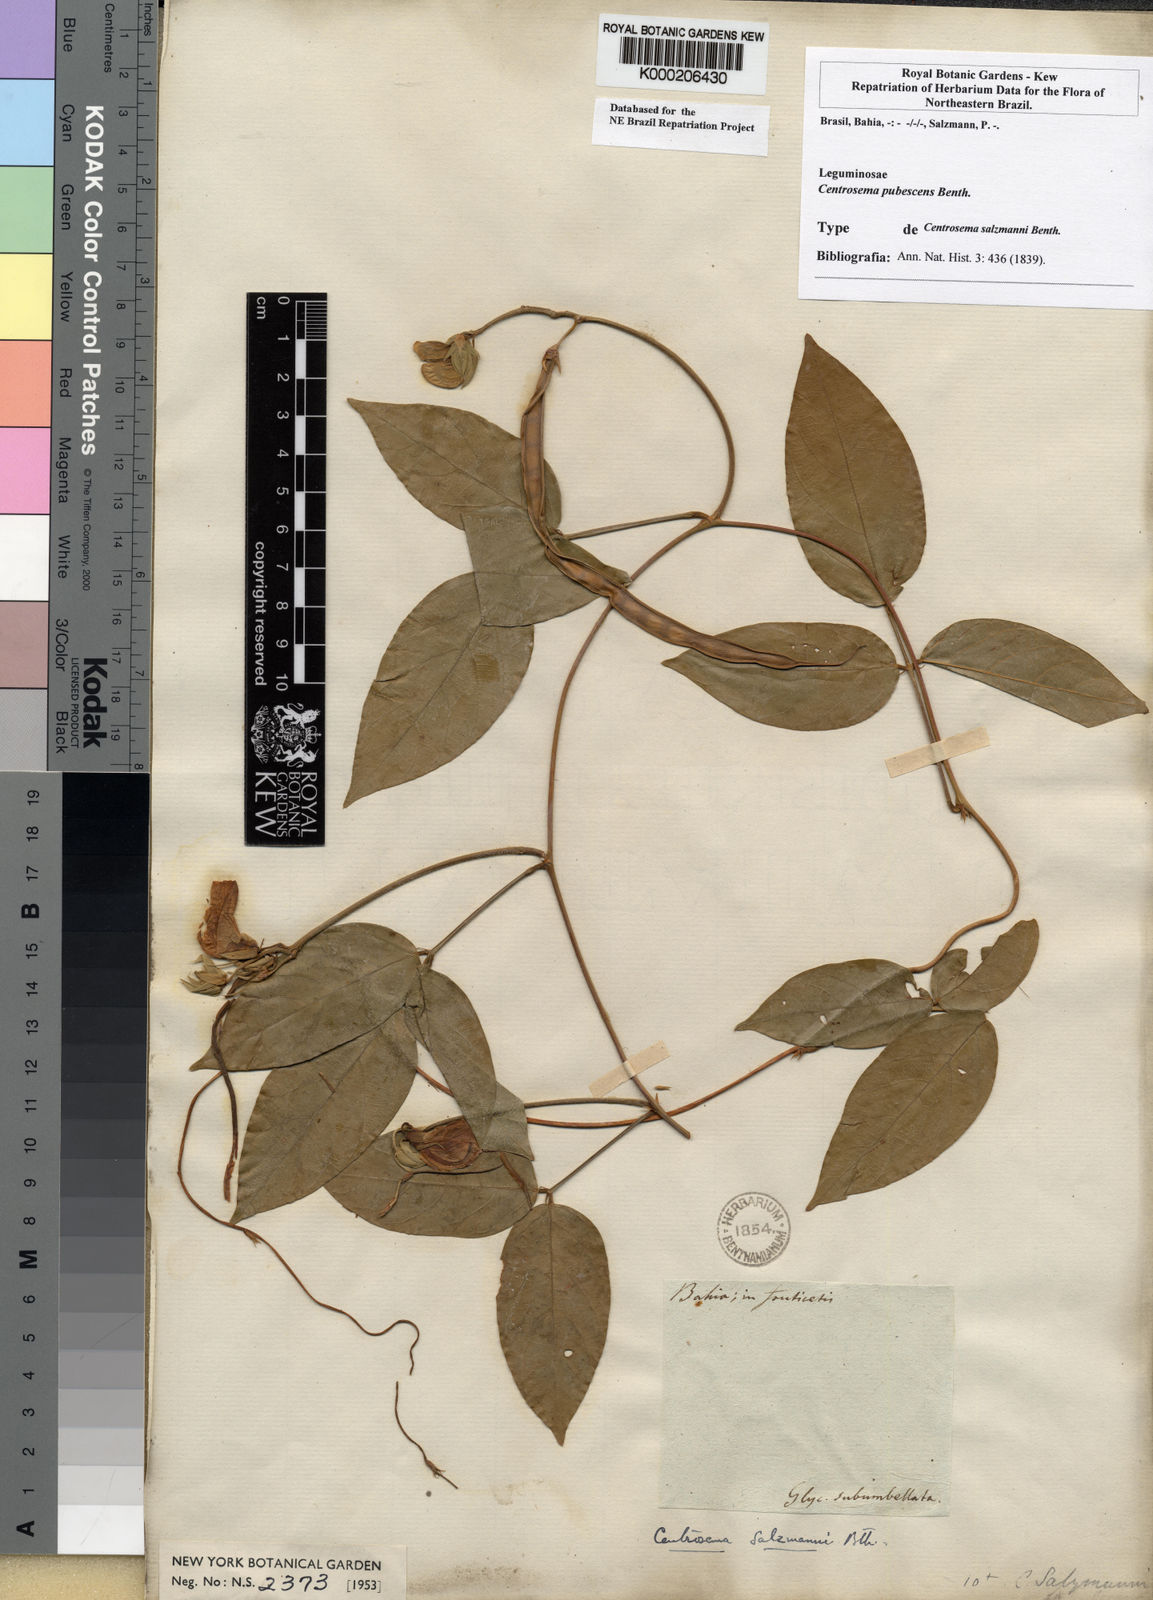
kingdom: Plantae
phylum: Tracheophyta
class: Magnoliopsida
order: Fabales
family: Fabaceae
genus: Centrosema
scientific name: Centrosema pubescens
